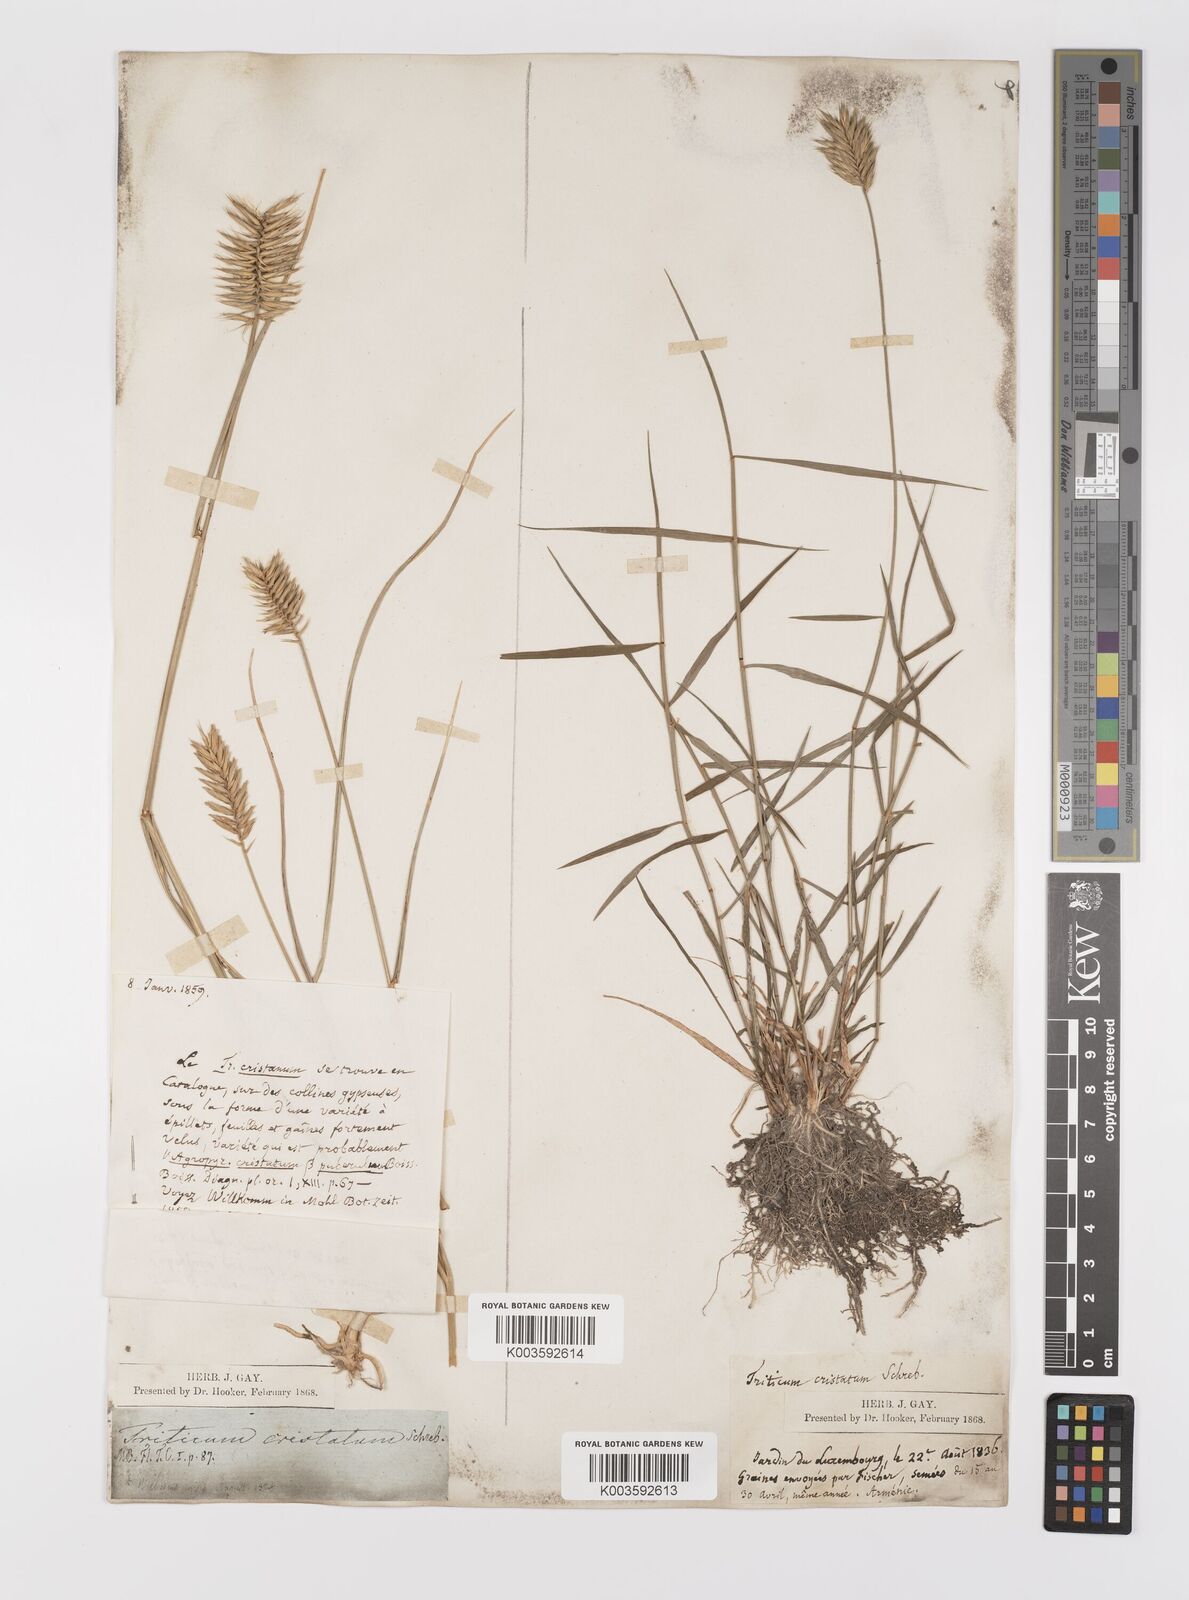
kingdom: Plantae
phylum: Tracheophyta
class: Liliopsida
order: Poales
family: Poaceae
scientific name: Poaceae
